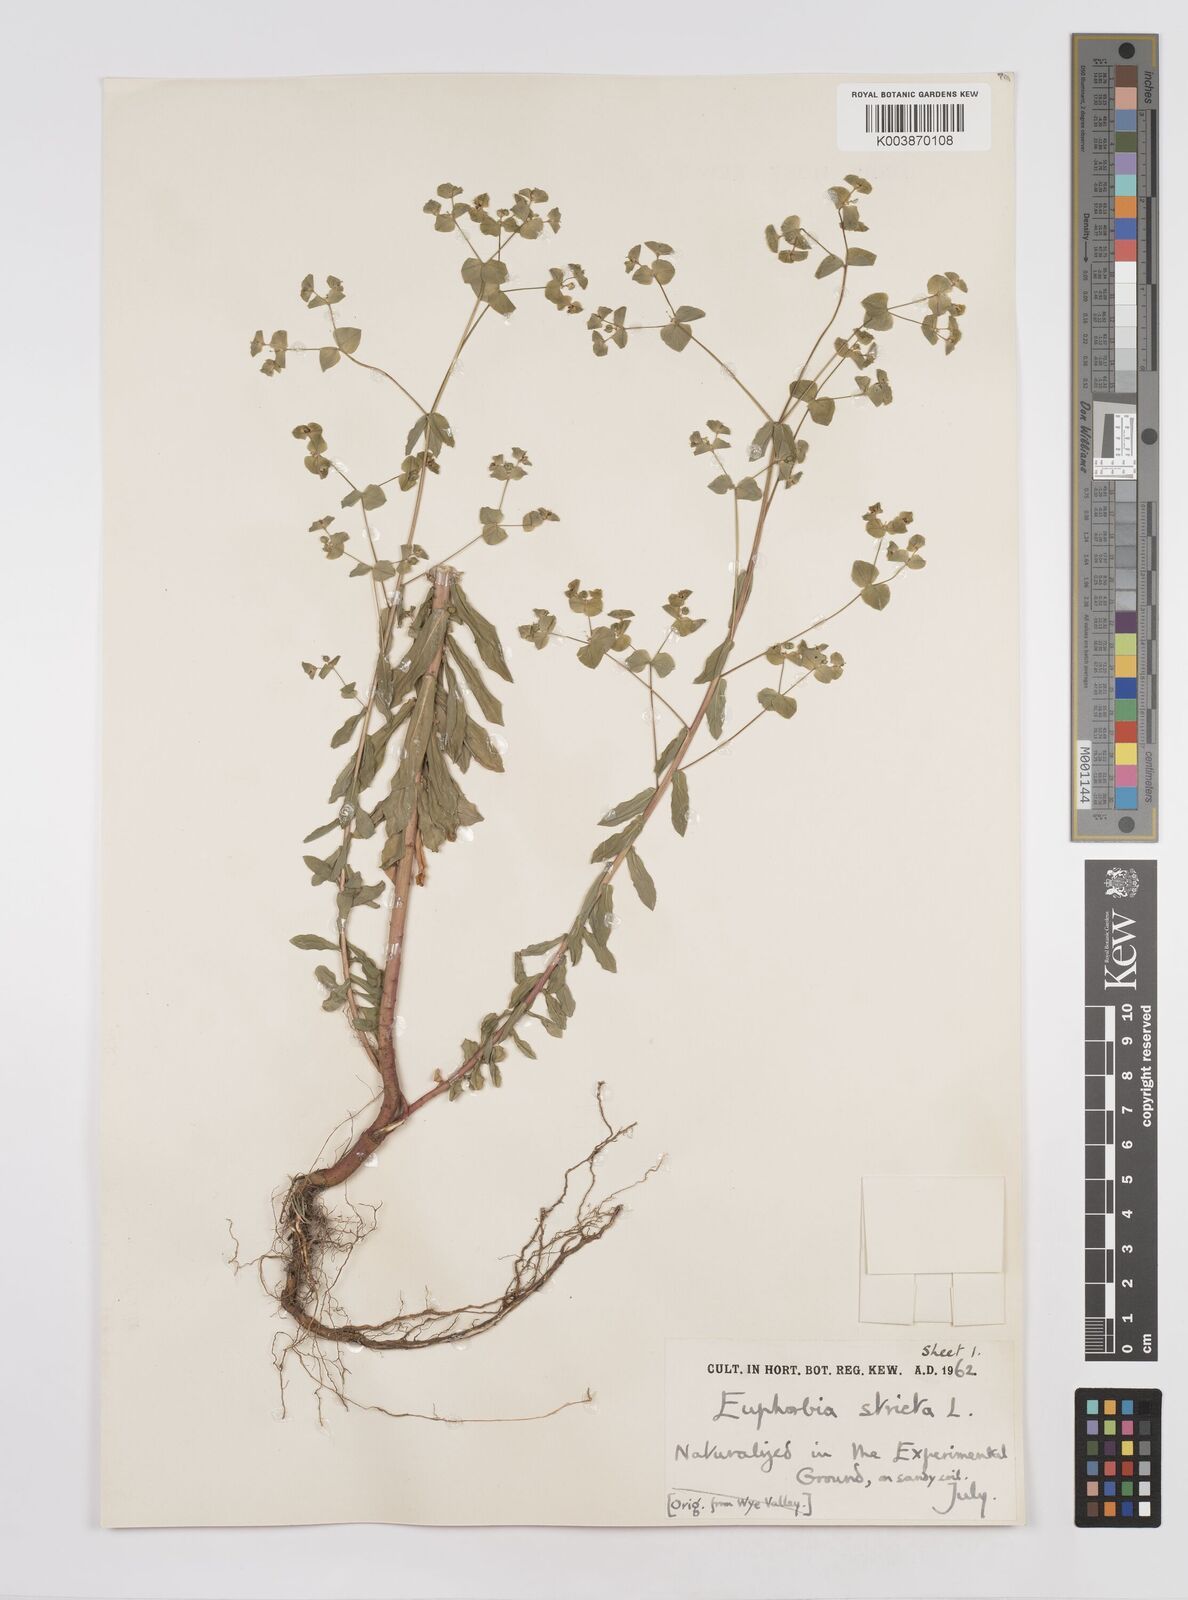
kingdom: Plantae
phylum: Tracheophyta
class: Magnoliopsida
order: Malpighiales
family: Euphorbiaceae
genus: Euphorbia
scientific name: Euphorbia stricta
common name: Upright spurge
